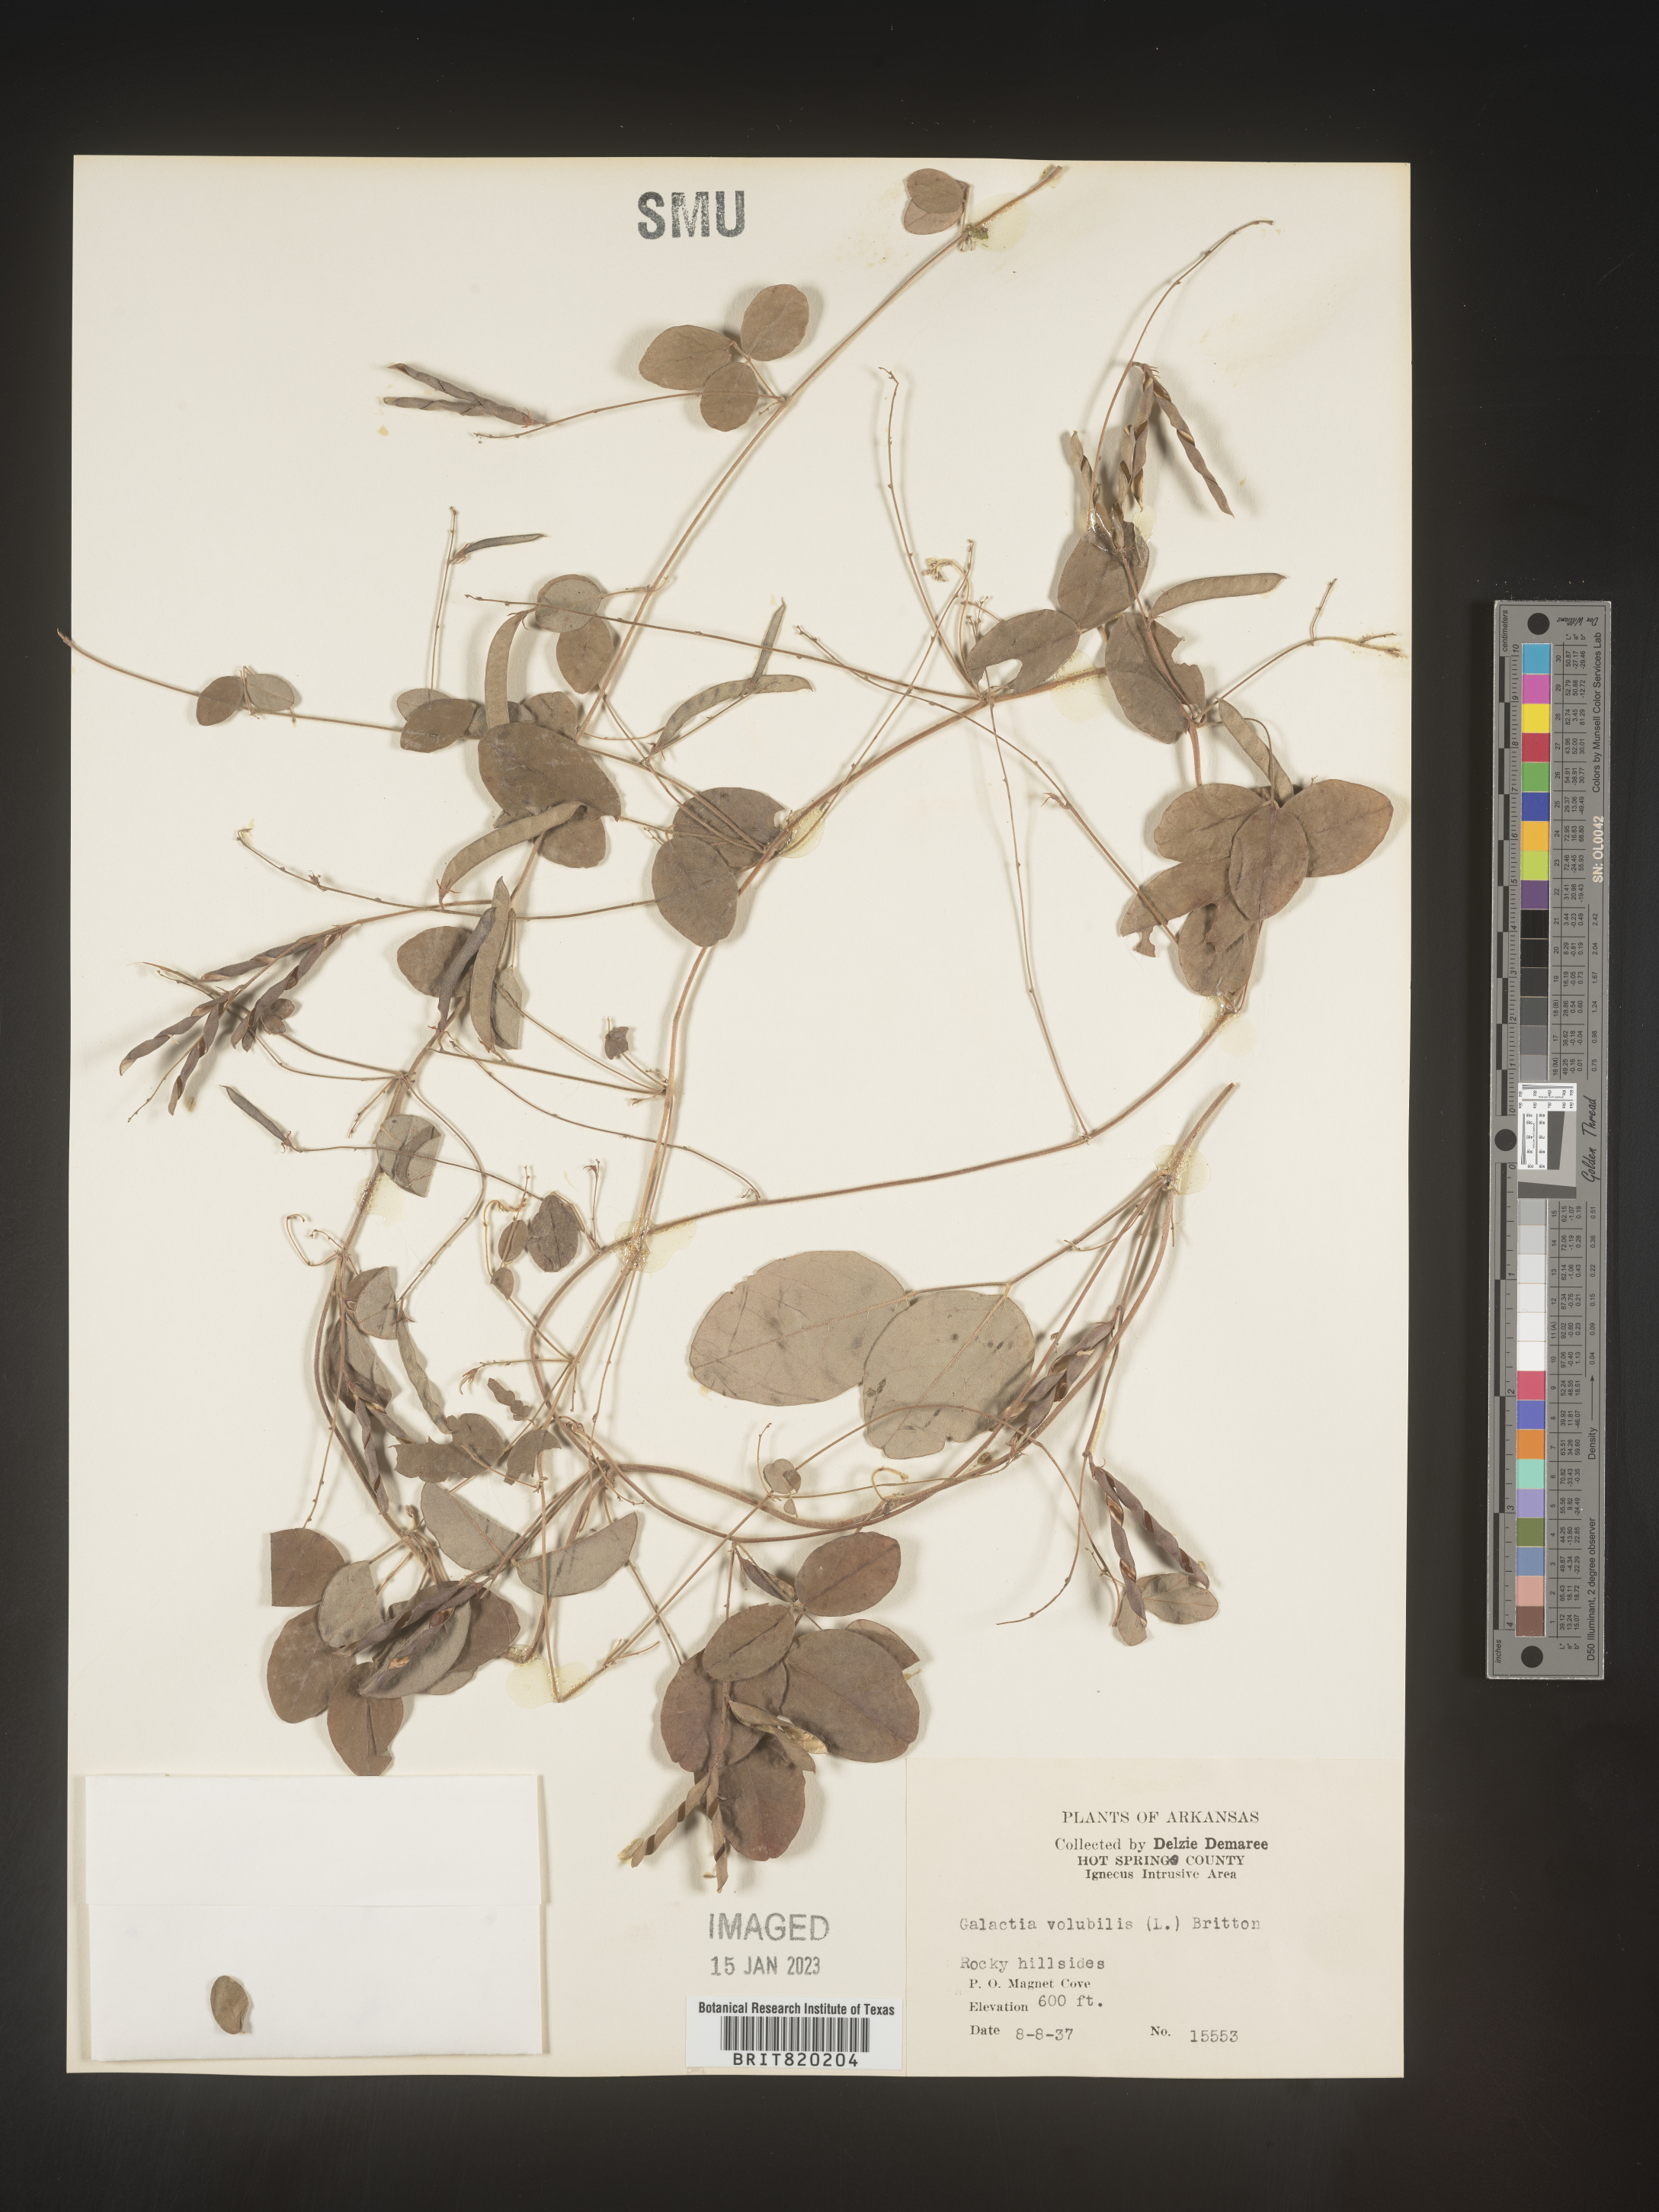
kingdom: Plantae
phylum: Tracheophyta
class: Magnoliopsida
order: Fabales
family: Fabaceae
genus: Galactia
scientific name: Galactia volubilis
